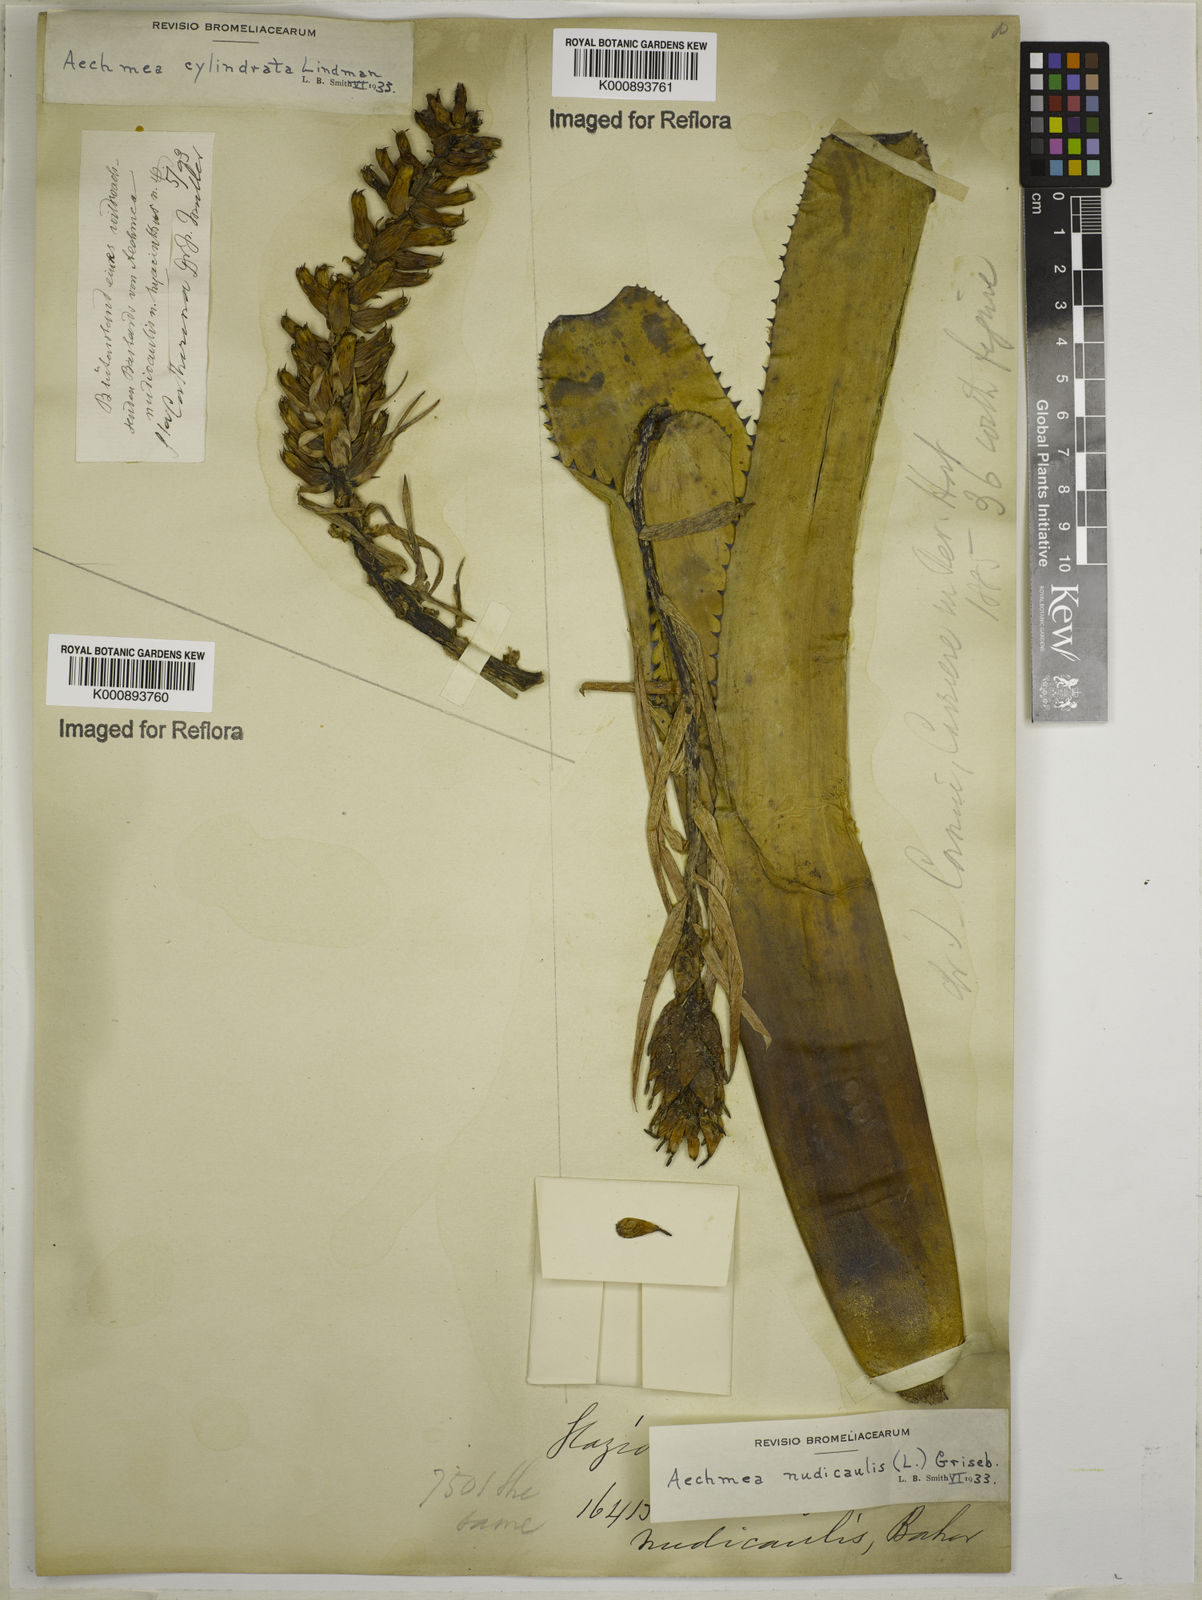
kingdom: Plantae
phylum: Tracheophyta
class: Liliopsida
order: Poales
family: Bromeliaceae
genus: Aechmea
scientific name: Aechmea cylindrata
